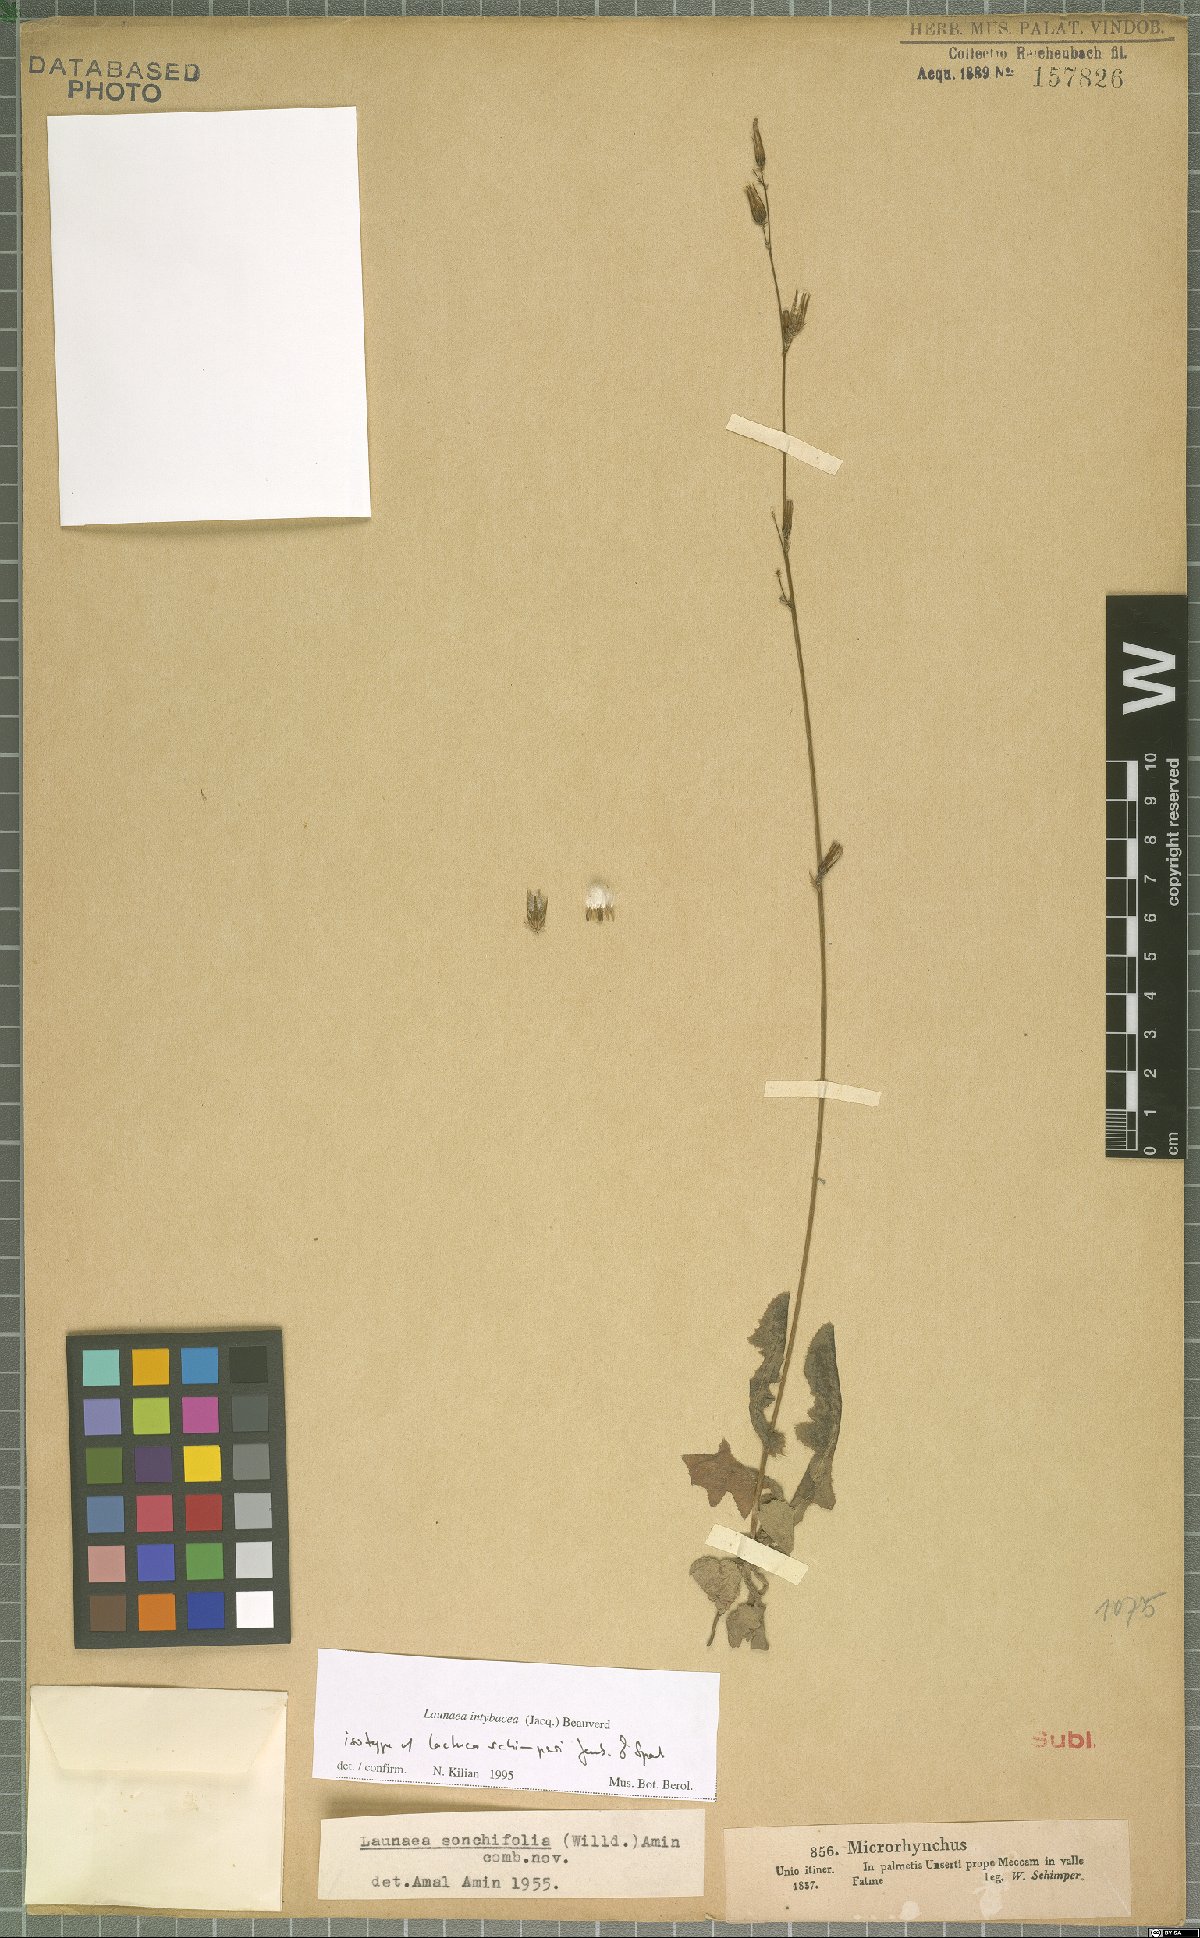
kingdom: Plantae
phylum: Tracheophyta
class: Magnoliopsida
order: Asterales
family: Asteraceae
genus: Launaea
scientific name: Launaea intybacea
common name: Achicoria azul
